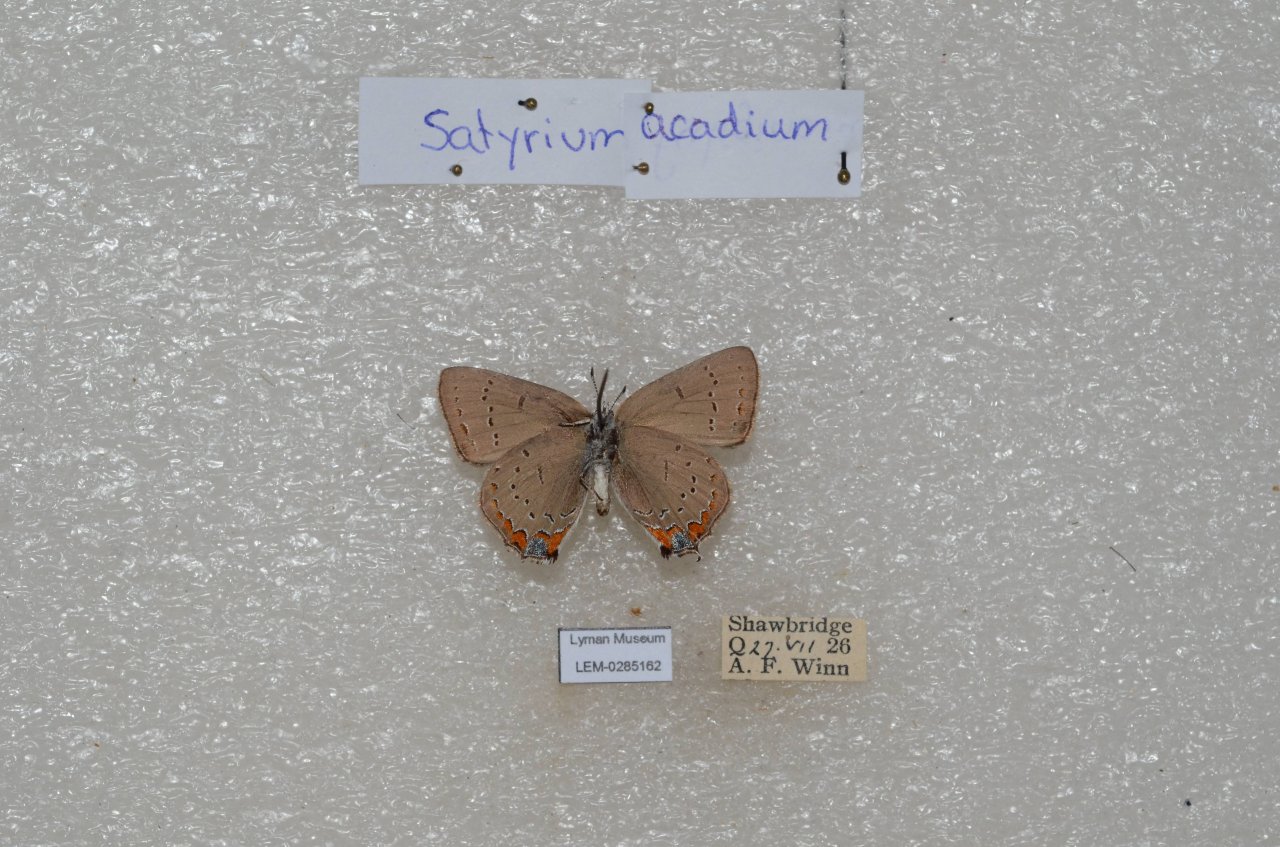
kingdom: Animalia
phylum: Arthropoda
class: Insecta
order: Lepidoptera
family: Lycaenidae
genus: Strymon
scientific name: Strymon acadica
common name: Acadian Hairstreak
